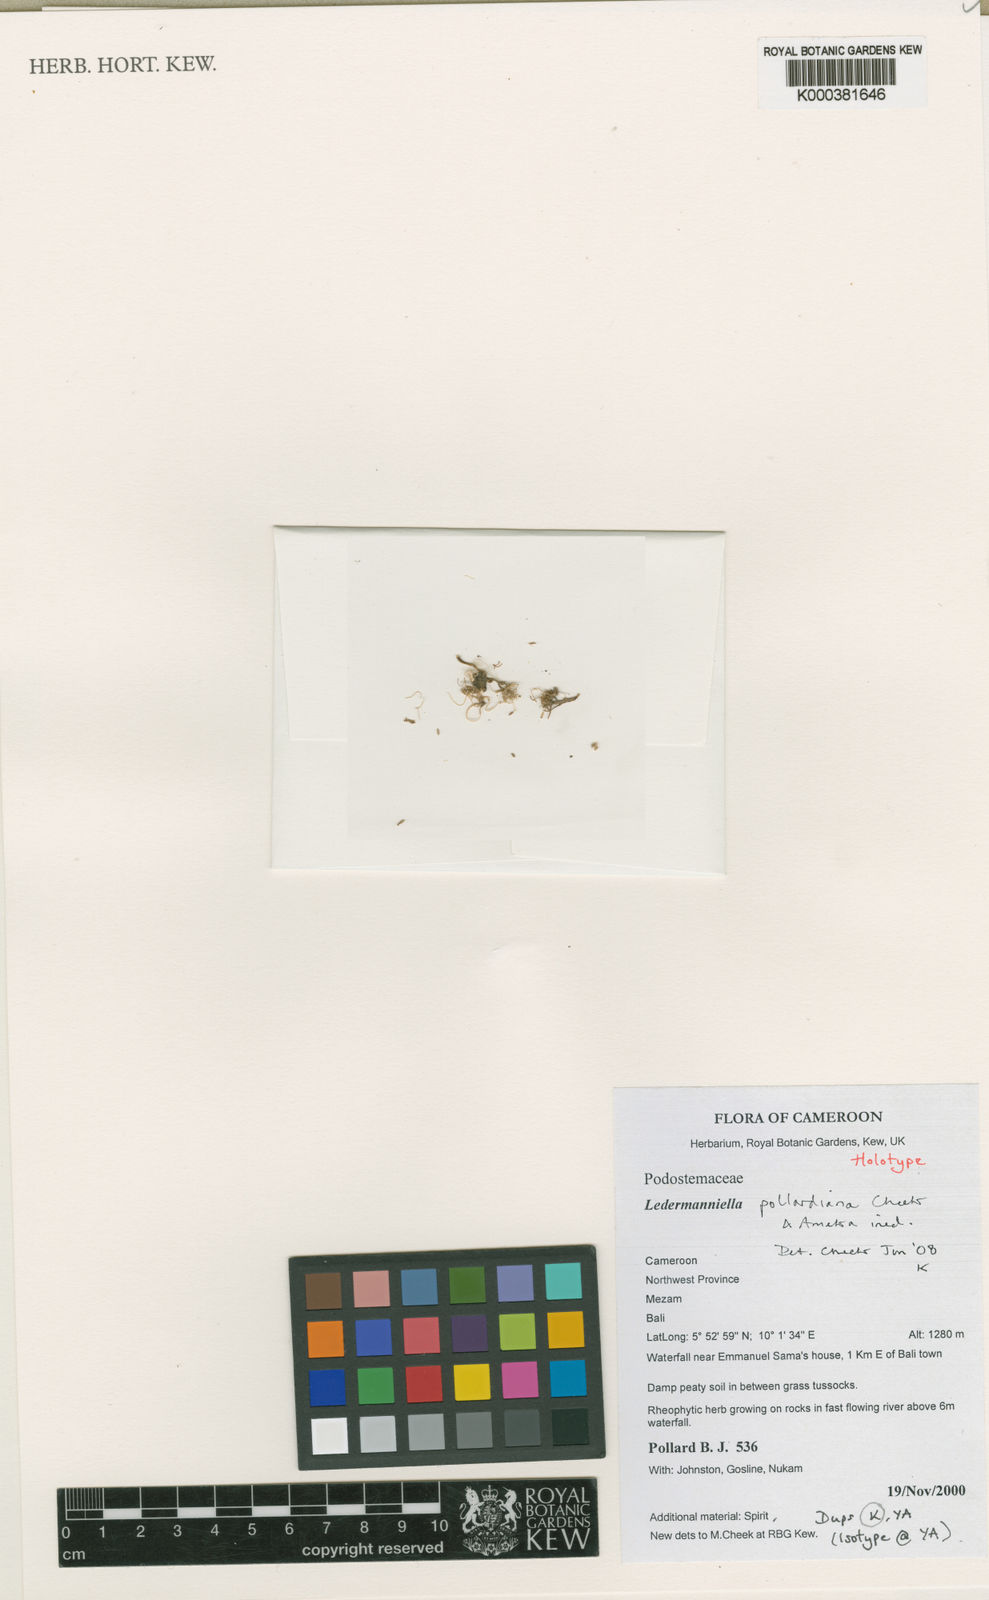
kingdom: Plantae
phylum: Tracheophyta
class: Magnoliopsida
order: Malpighiales
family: Podostemaceae
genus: Ledermanniella
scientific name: Ledermanniella pollardiana
